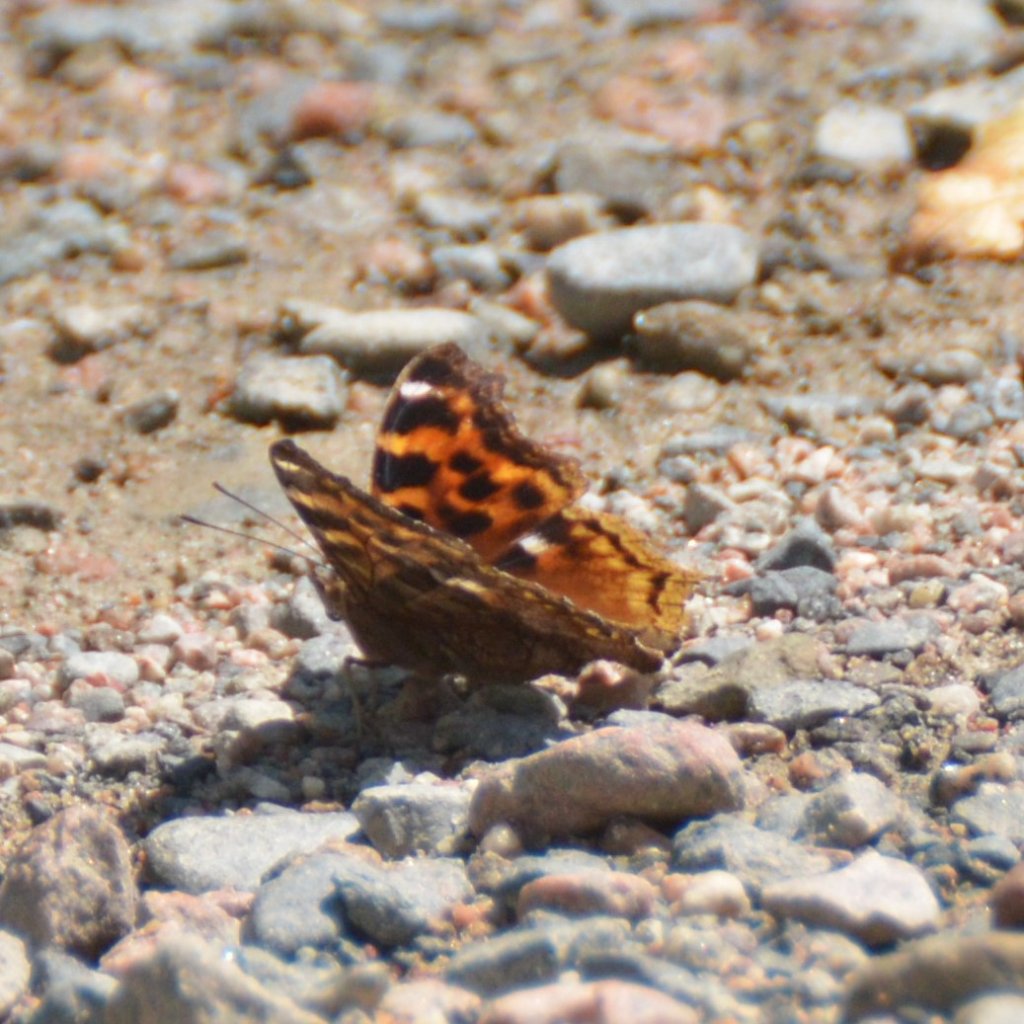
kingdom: Animalia
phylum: Arthropoda
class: Insecta
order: Lepidoptera
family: Nymphalidae
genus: Polygonia
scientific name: Polygonia vaualbum
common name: Compton Tortoiseshell
